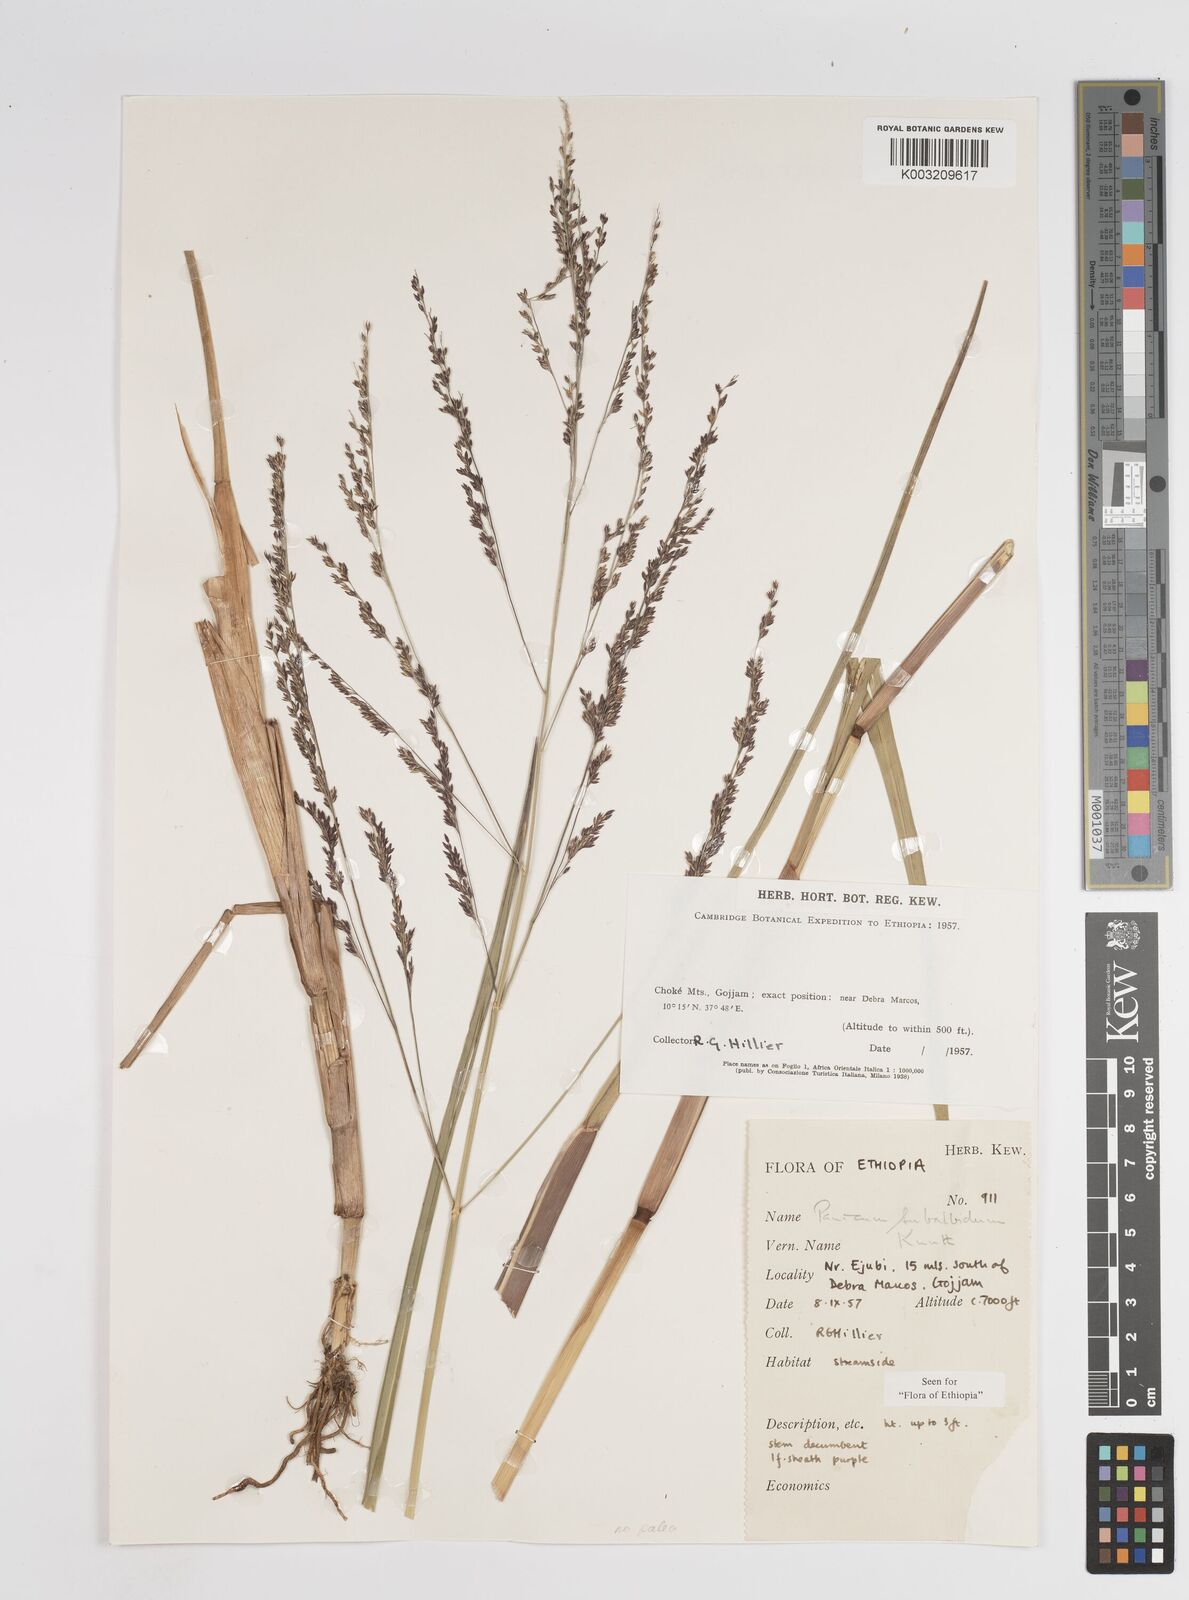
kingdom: Plantae
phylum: Tracheophyta
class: Liliopsida
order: Poales
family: Poaceae
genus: Panicum
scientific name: Panicum subalbidum
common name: Elbow buffalo grass
